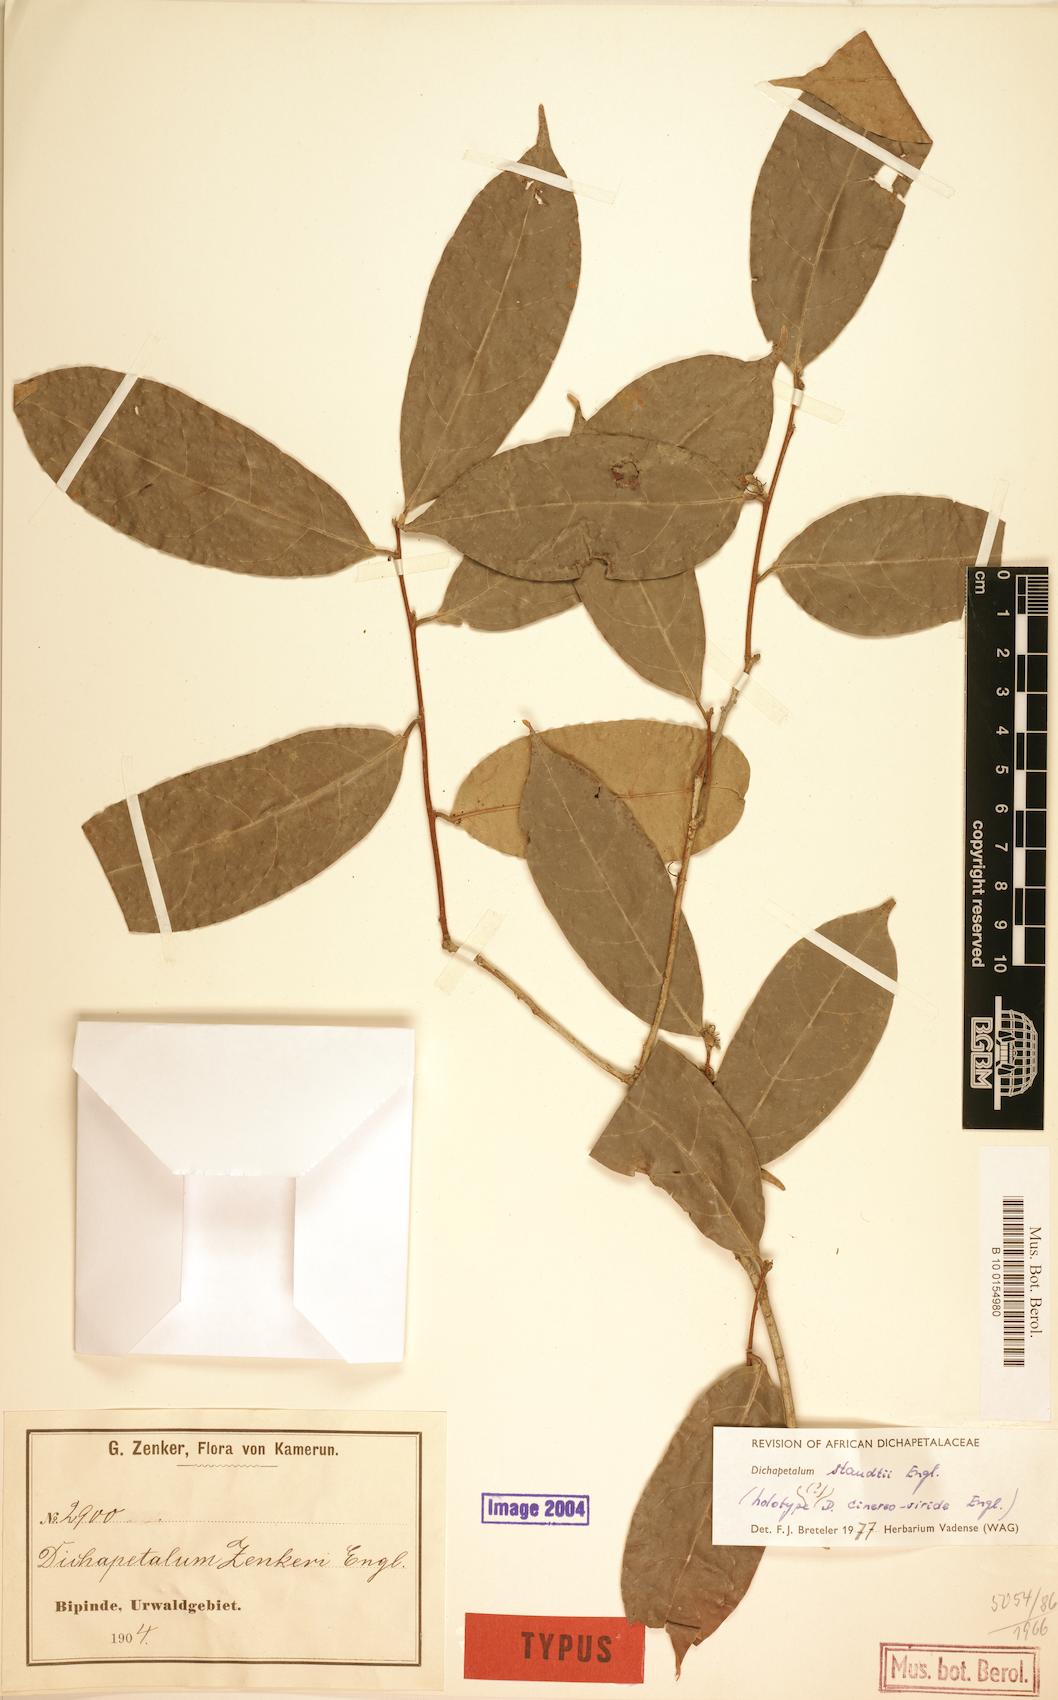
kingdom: Plantae
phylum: Tracheophyta
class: Magnoliopsida
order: Malpighiales
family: Dichapetalaceae
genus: Dichapetalum
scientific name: Dichapetalum staudtii
